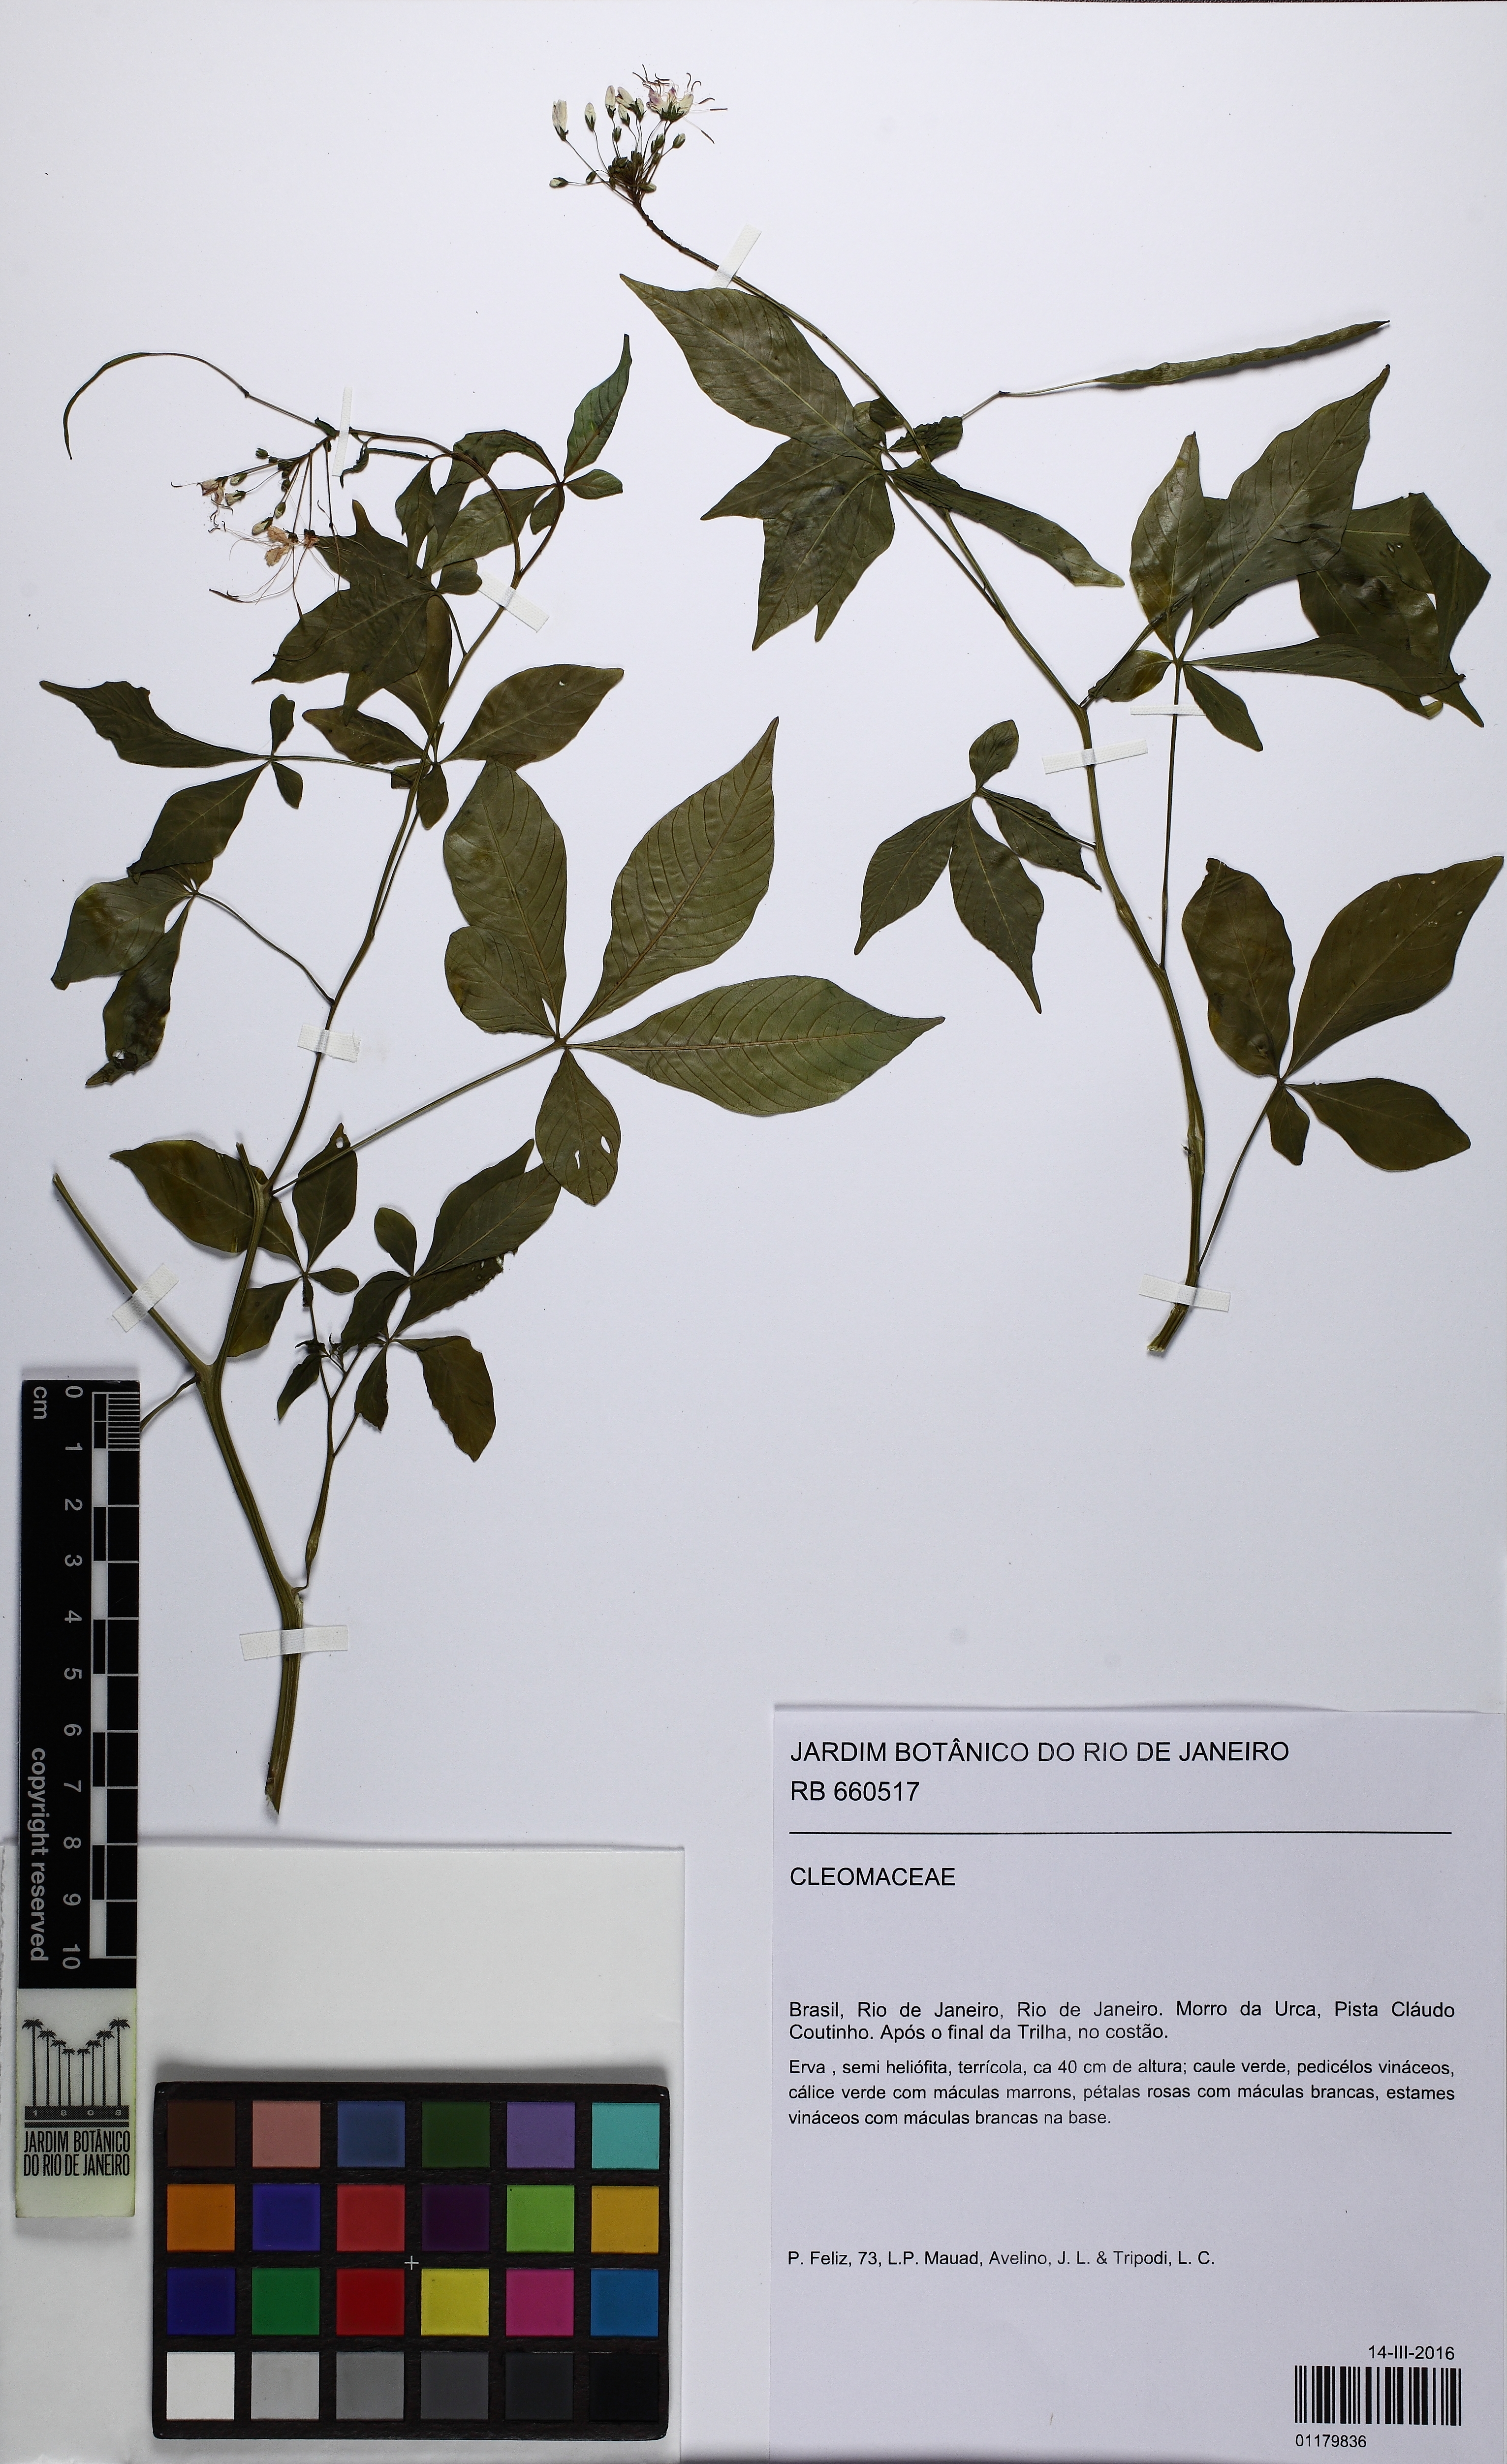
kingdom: Plantae
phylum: Tracheophyta
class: Magnoliopsida
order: Brassicales
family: Cleomaceae
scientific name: Cleomaceae
